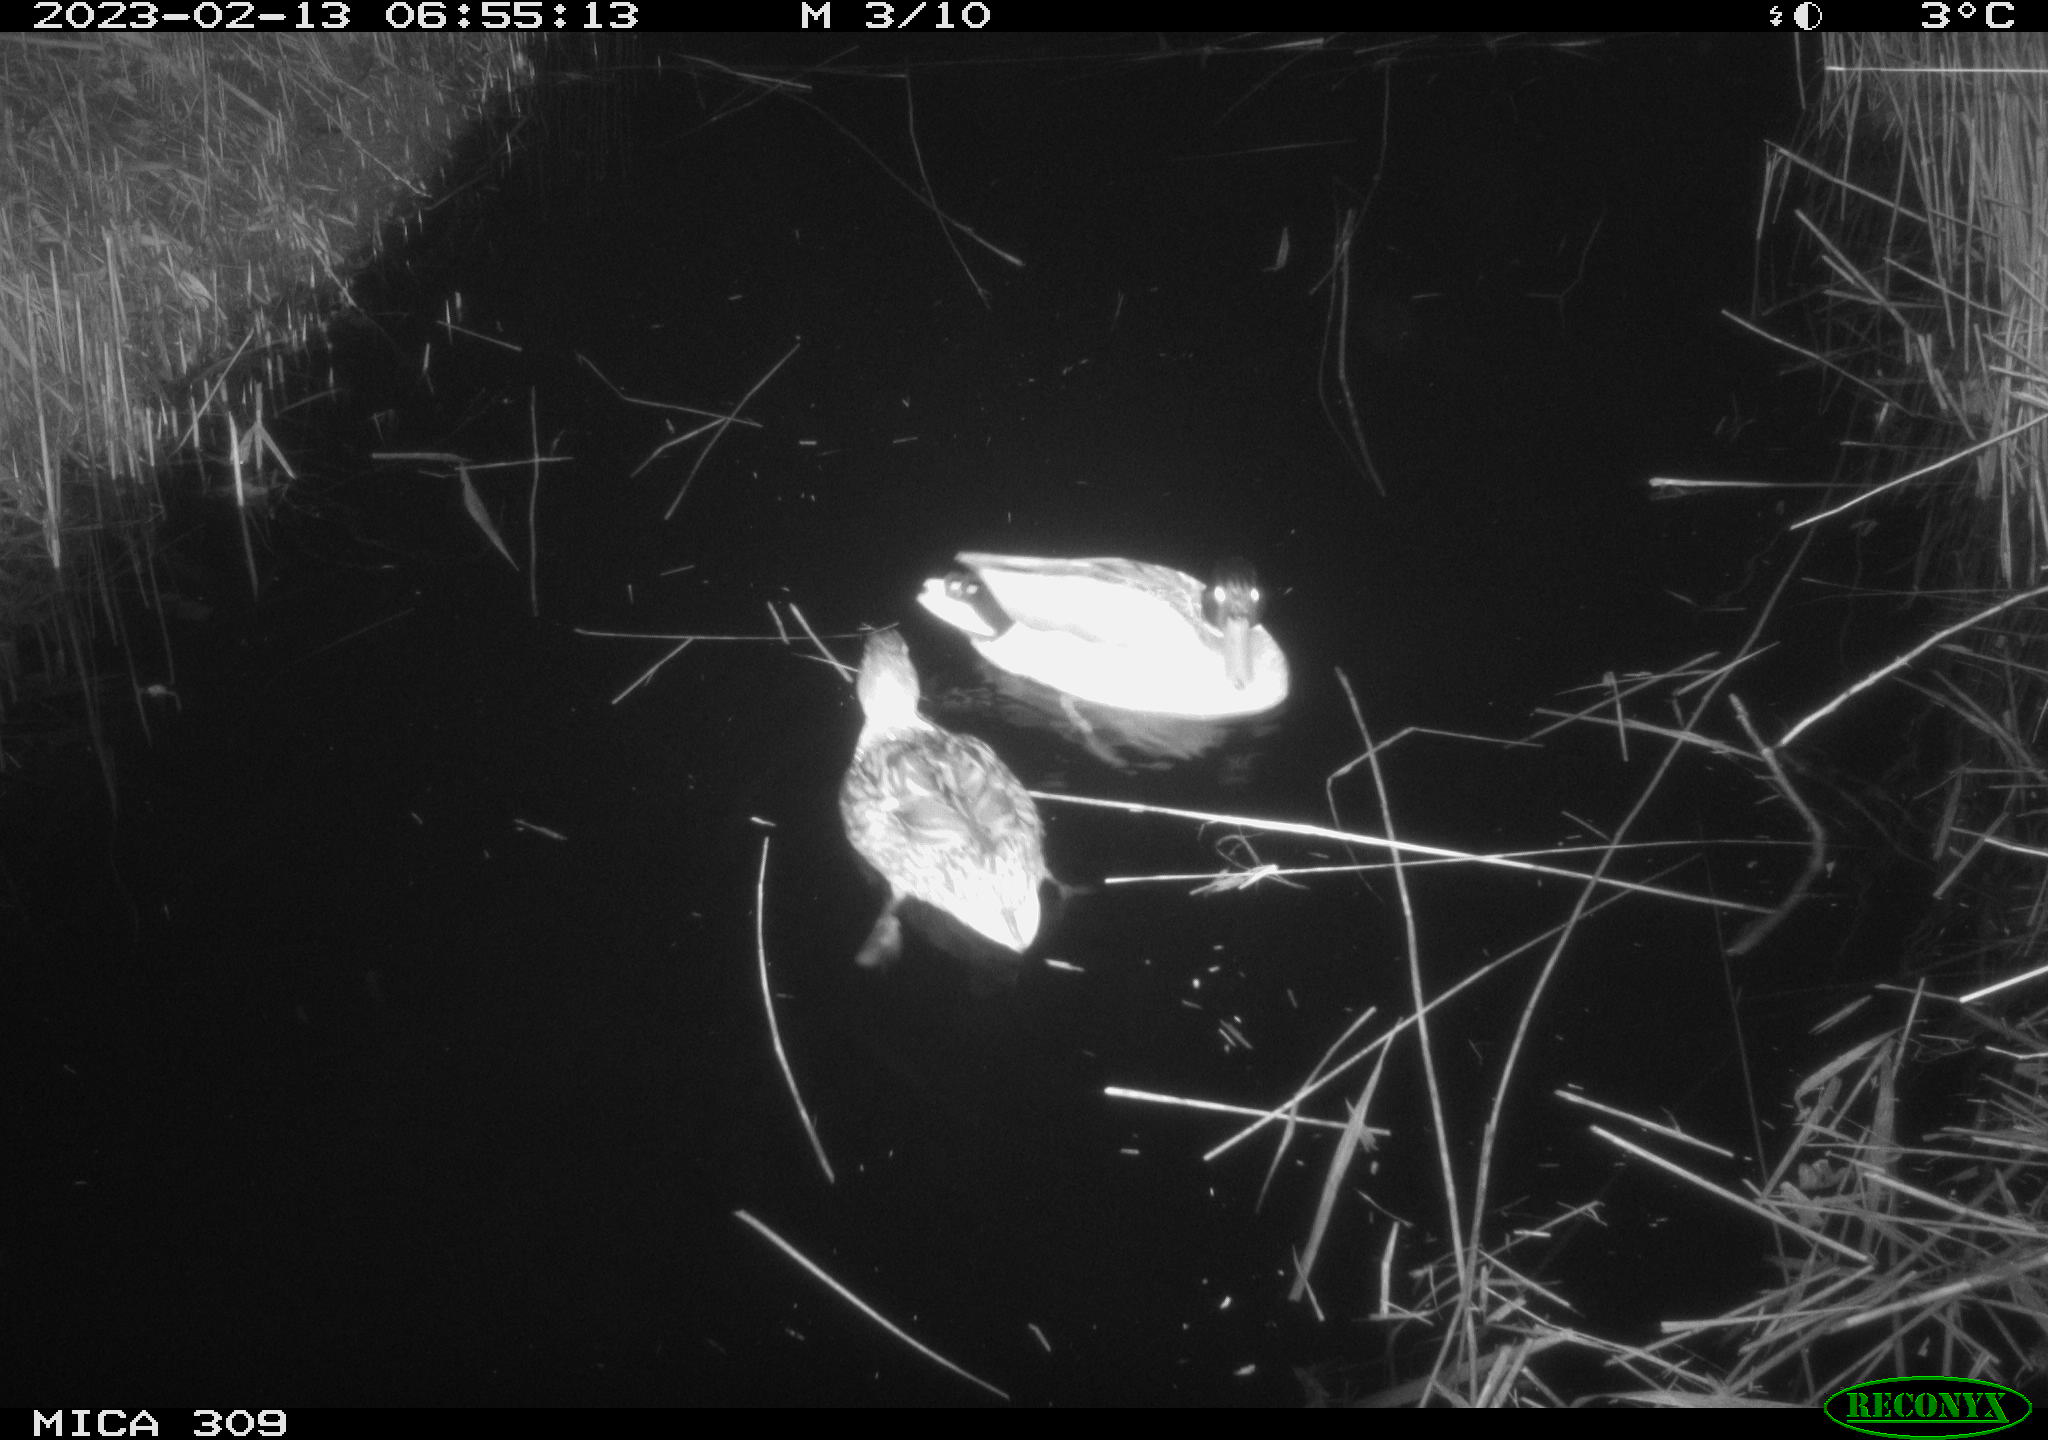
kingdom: Animalia
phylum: Chordata
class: Aves
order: Anseriformes
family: Anatidae
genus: Anas
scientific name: Anas
